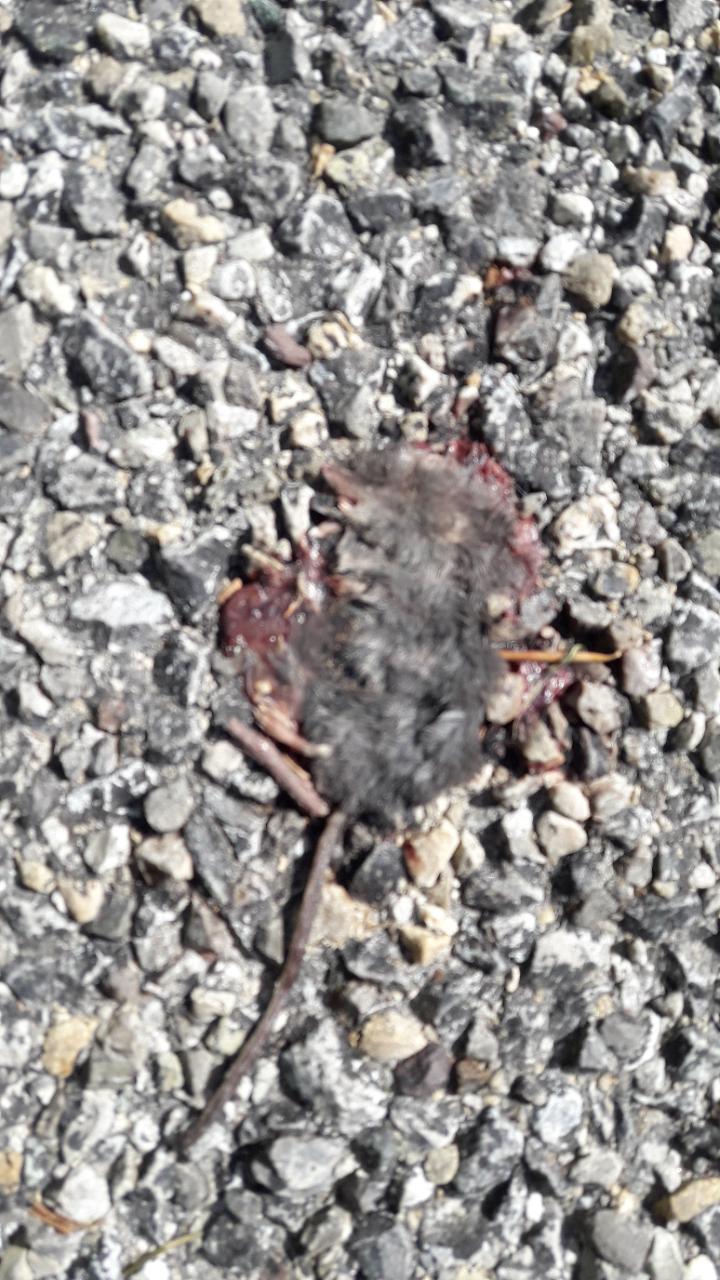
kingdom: Animalia
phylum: Chordata
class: Mammalia
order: Soricomorpha
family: Soricidae
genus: Sorex
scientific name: Sorex
